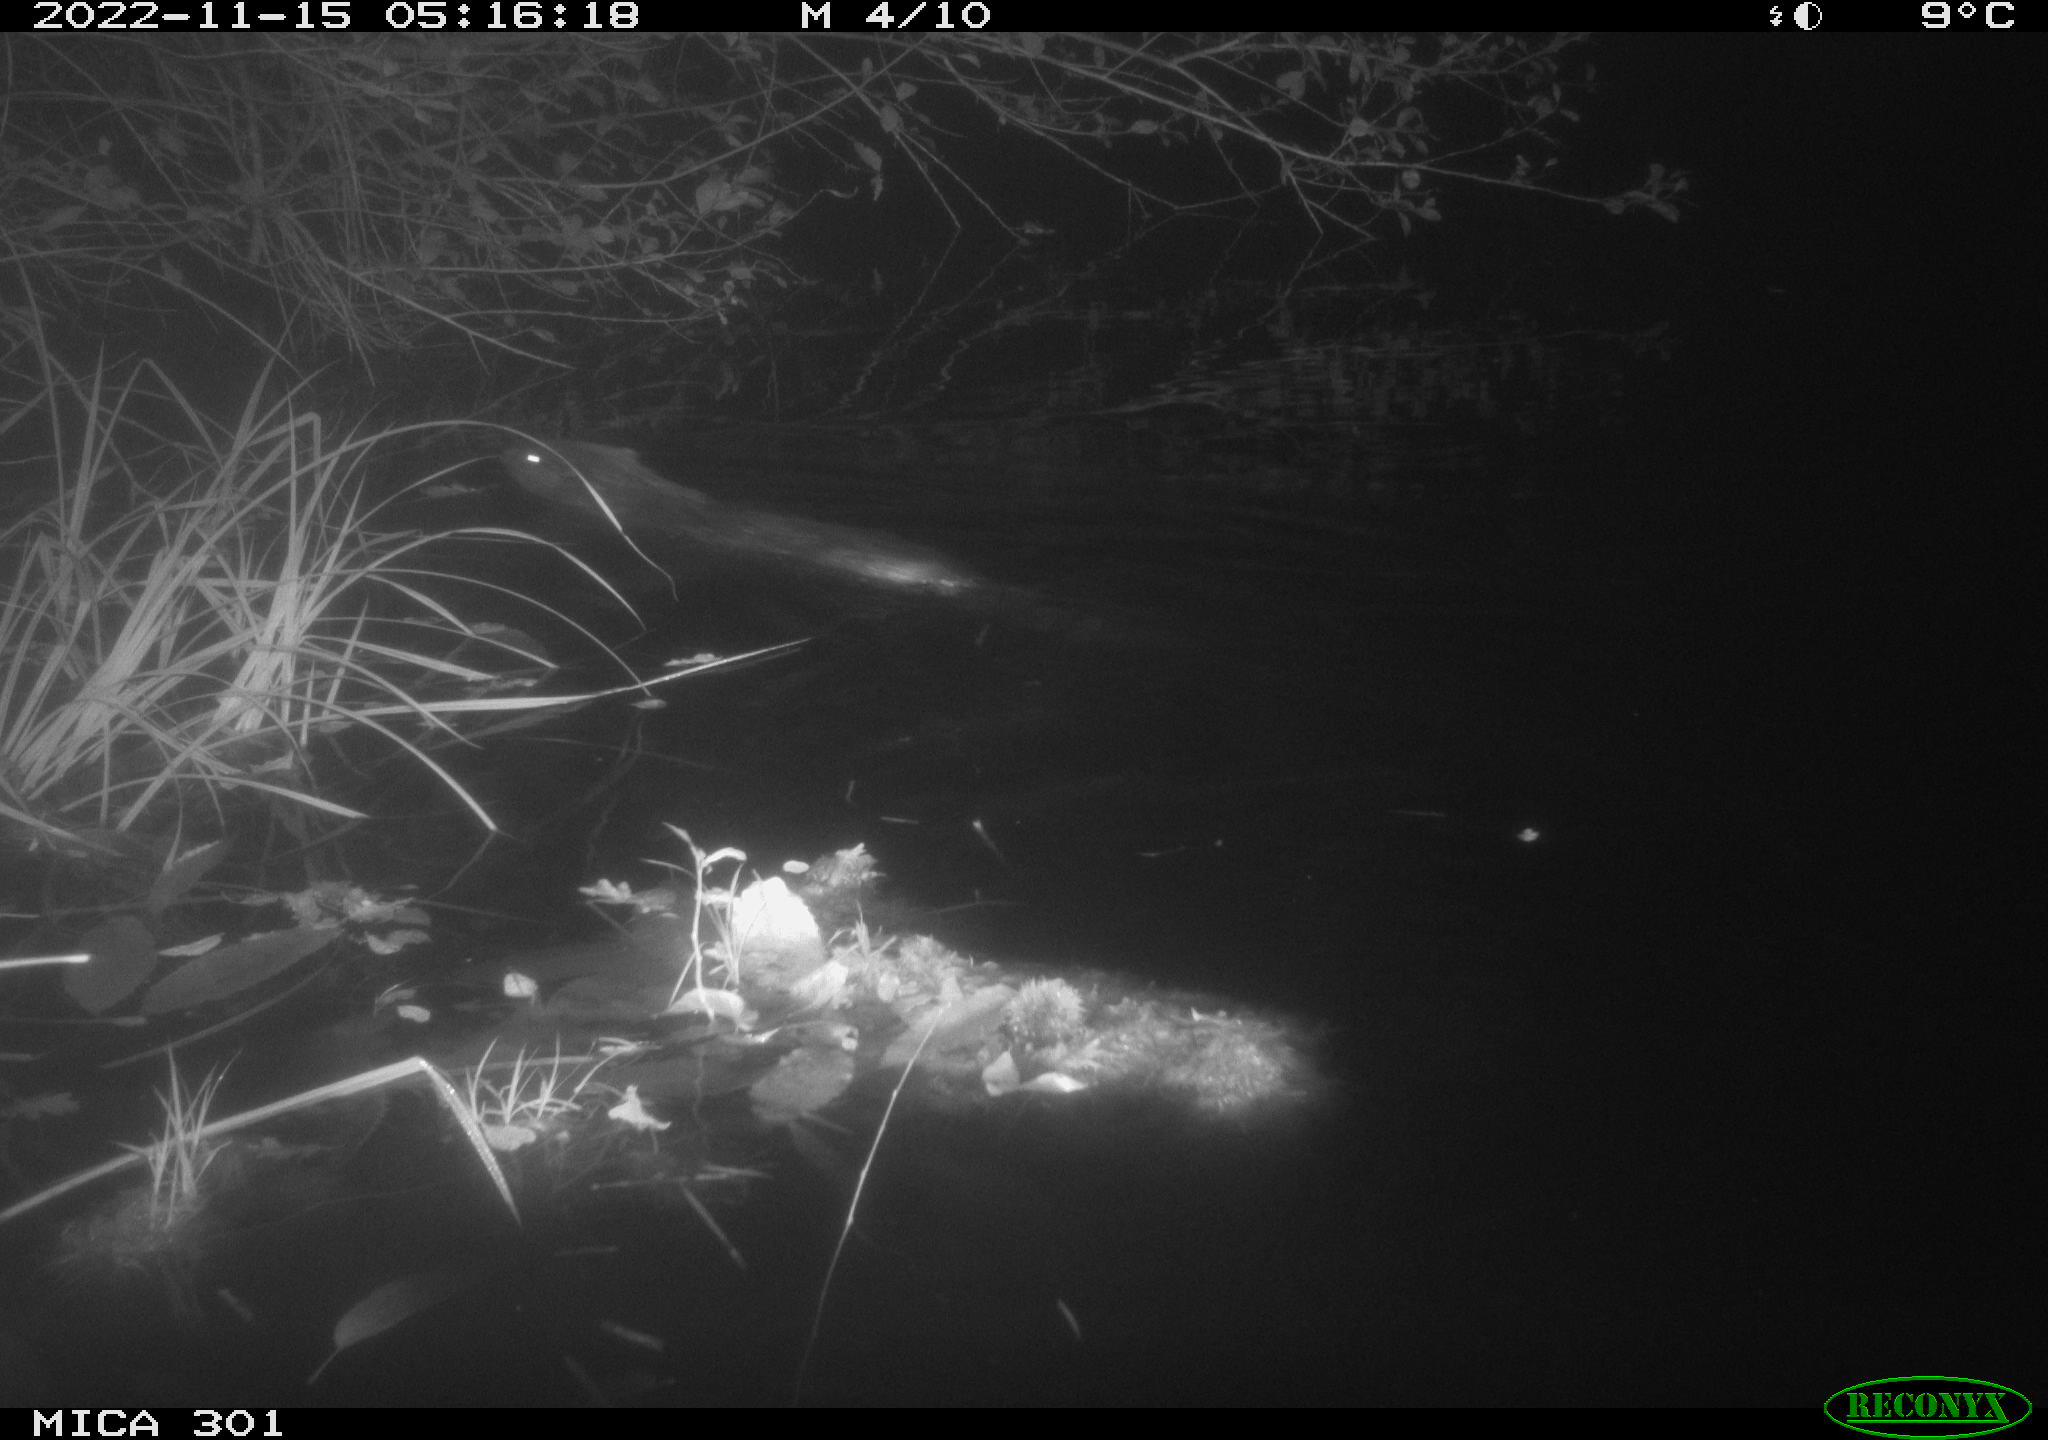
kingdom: Animalia
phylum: Chordata
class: Mammalia
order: Rodentia
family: Castoridae
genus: Castor
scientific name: Castor fiber
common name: Eurasian beaver
